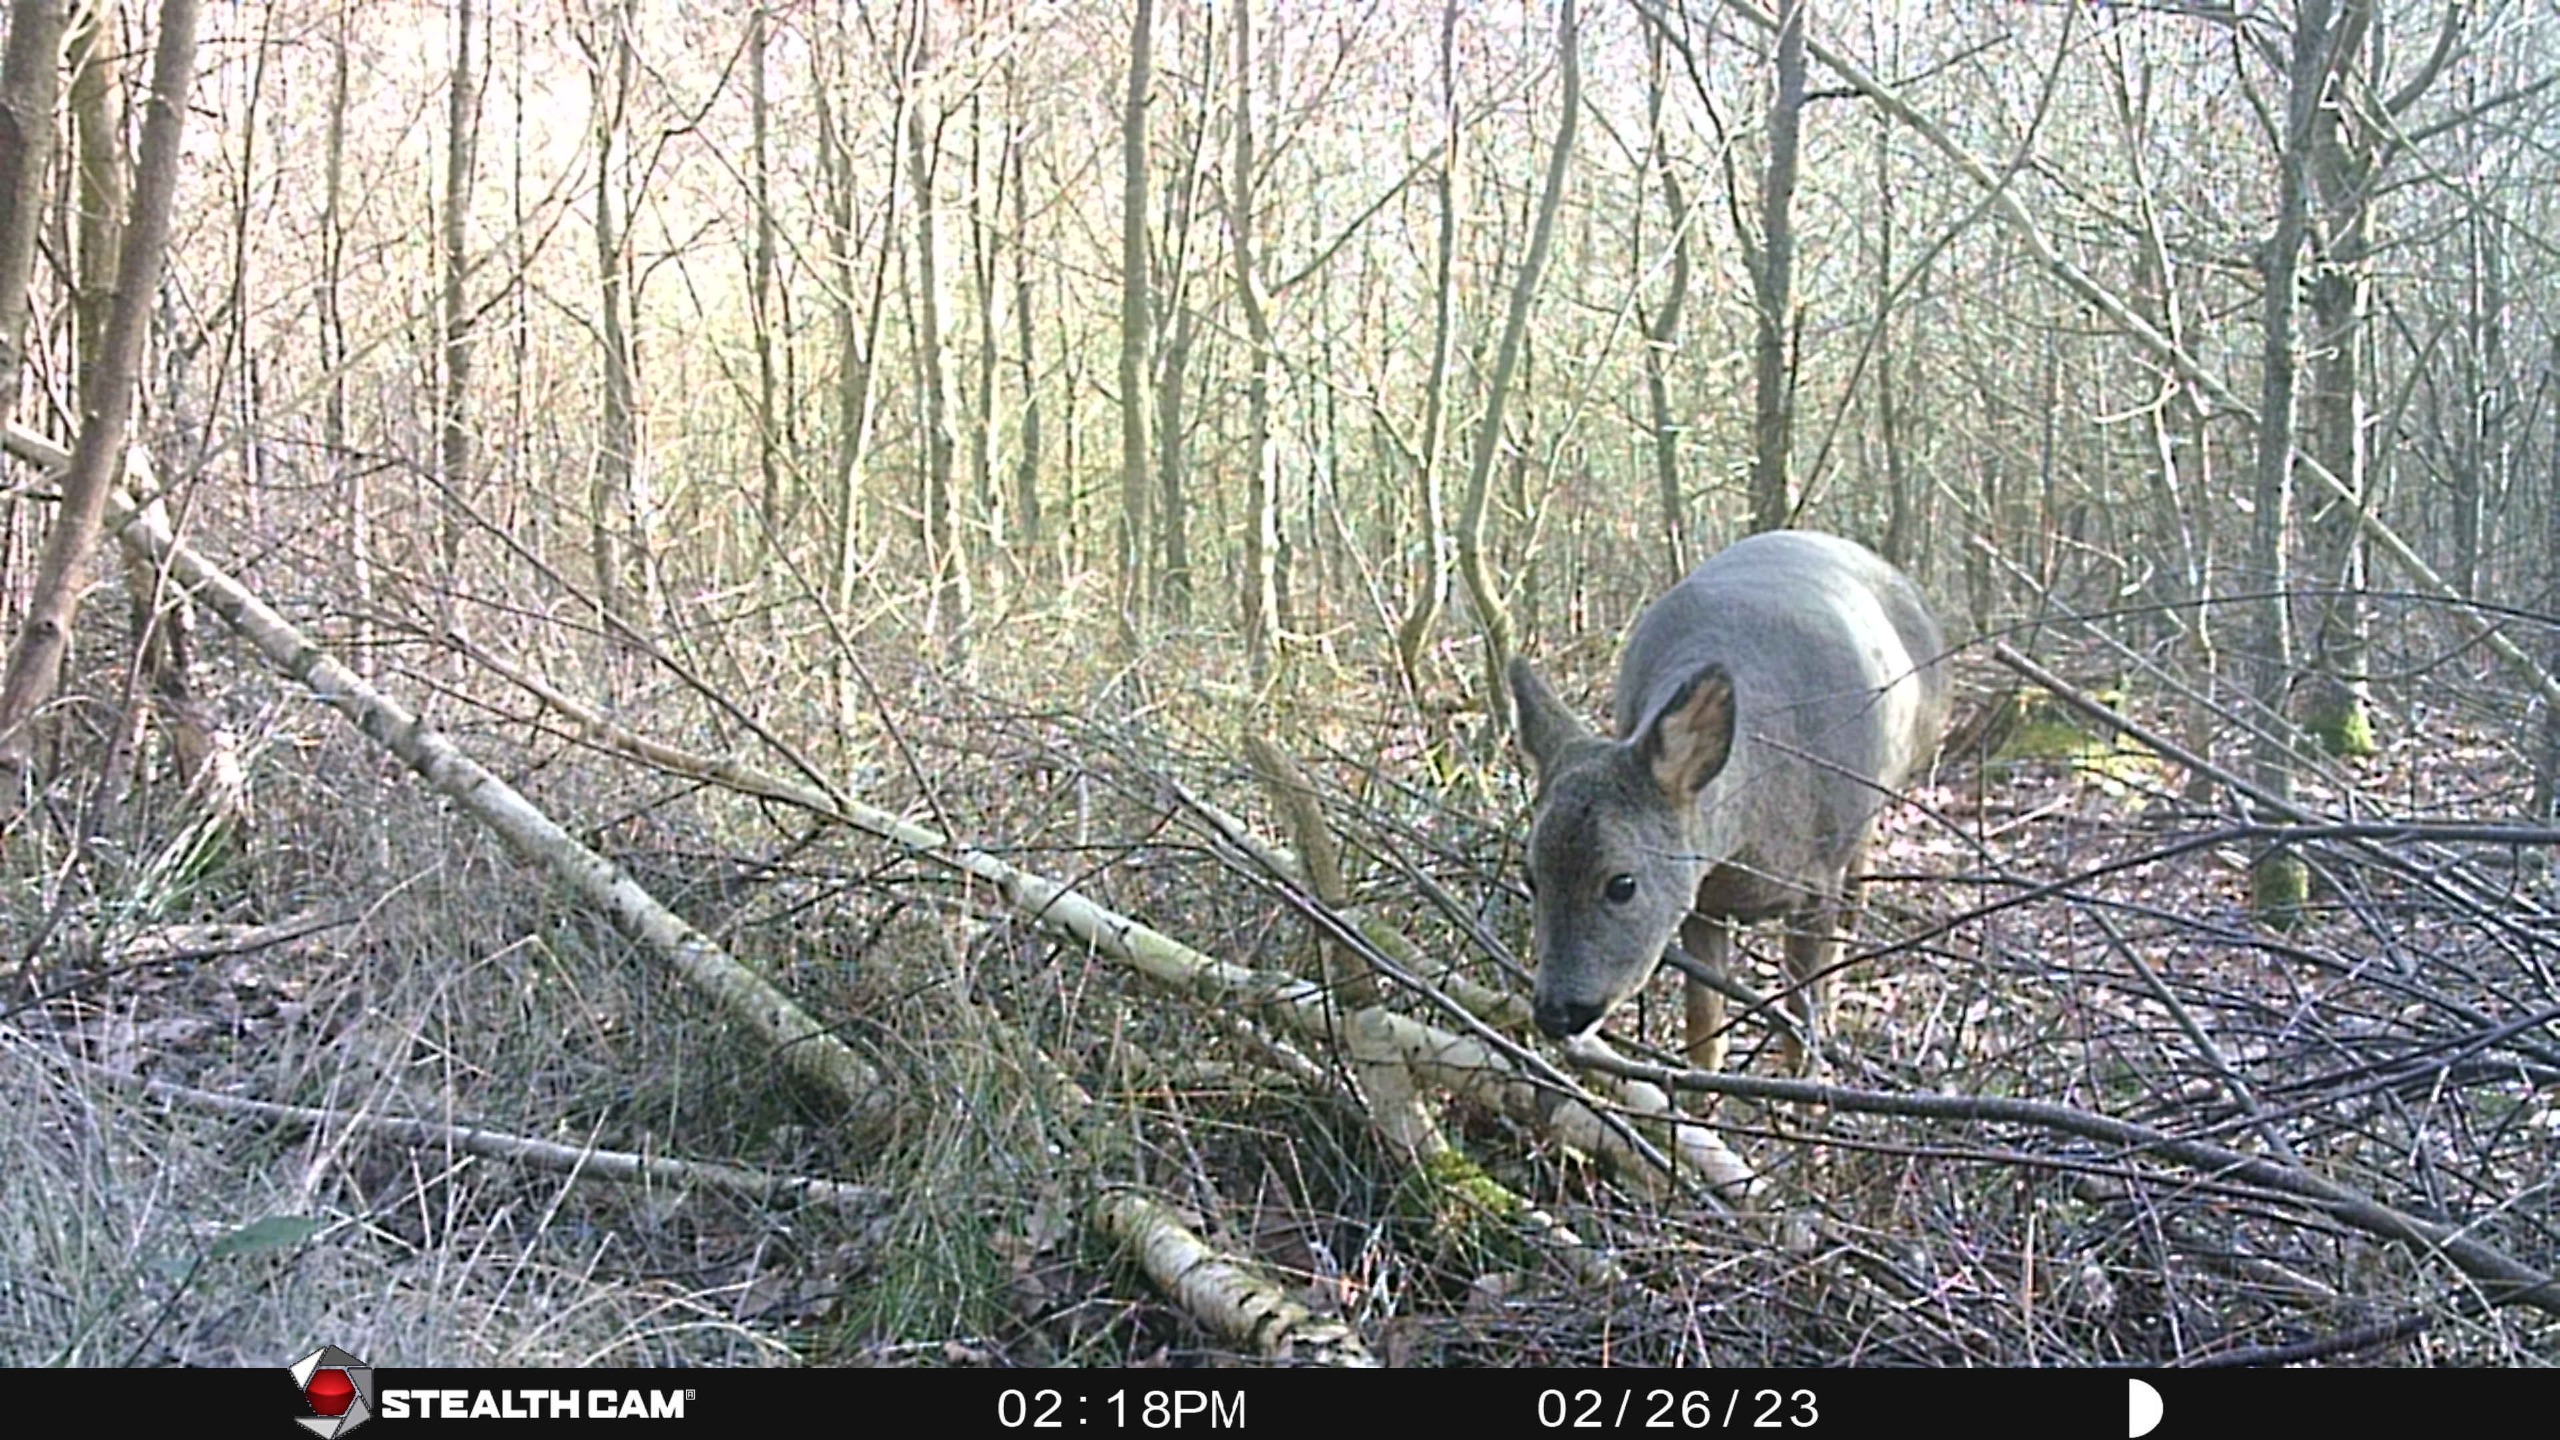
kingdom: Animalia
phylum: Chordata
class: Mammalia
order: Artiodactyla
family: Cervidae
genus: Capreolus
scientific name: Capreolus capreolus
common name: Rådyr
